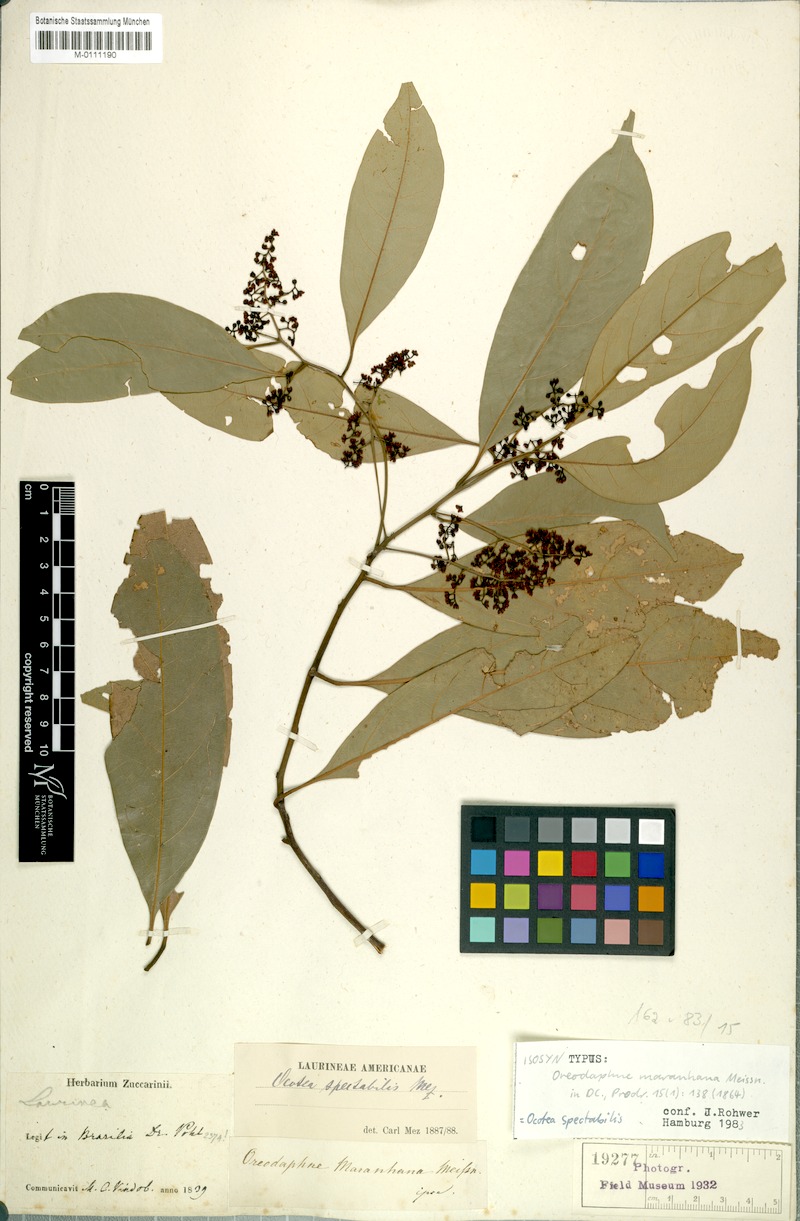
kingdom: Plantae
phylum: Tracheophyta
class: Magnoliopsida
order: Laurales
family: Lauraceae
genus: Ocotea
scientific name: Ocotea spectabilis
